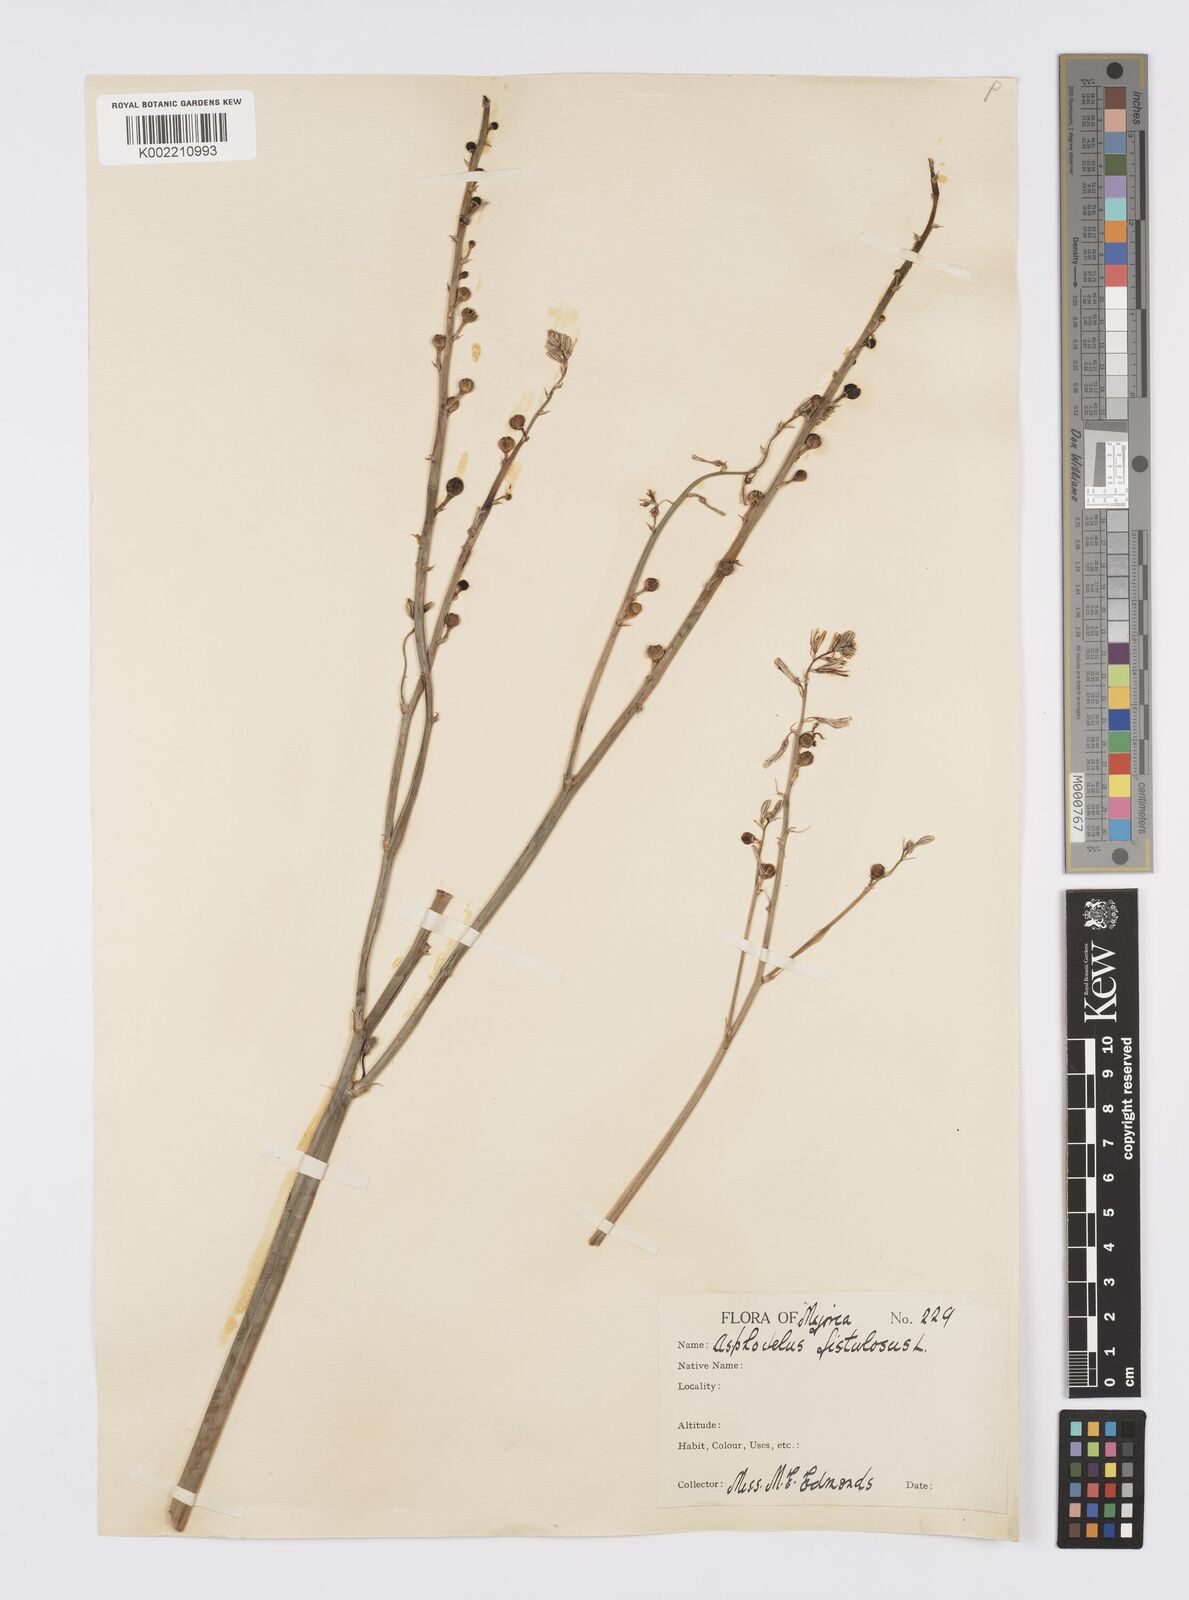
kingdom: Plantae
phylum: Tracheophyta
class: Liliopsida
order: Asparagales
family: Asphodelaceae
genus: Asphodelus
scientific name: Asphodelus fistulosus
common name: Onionweed
